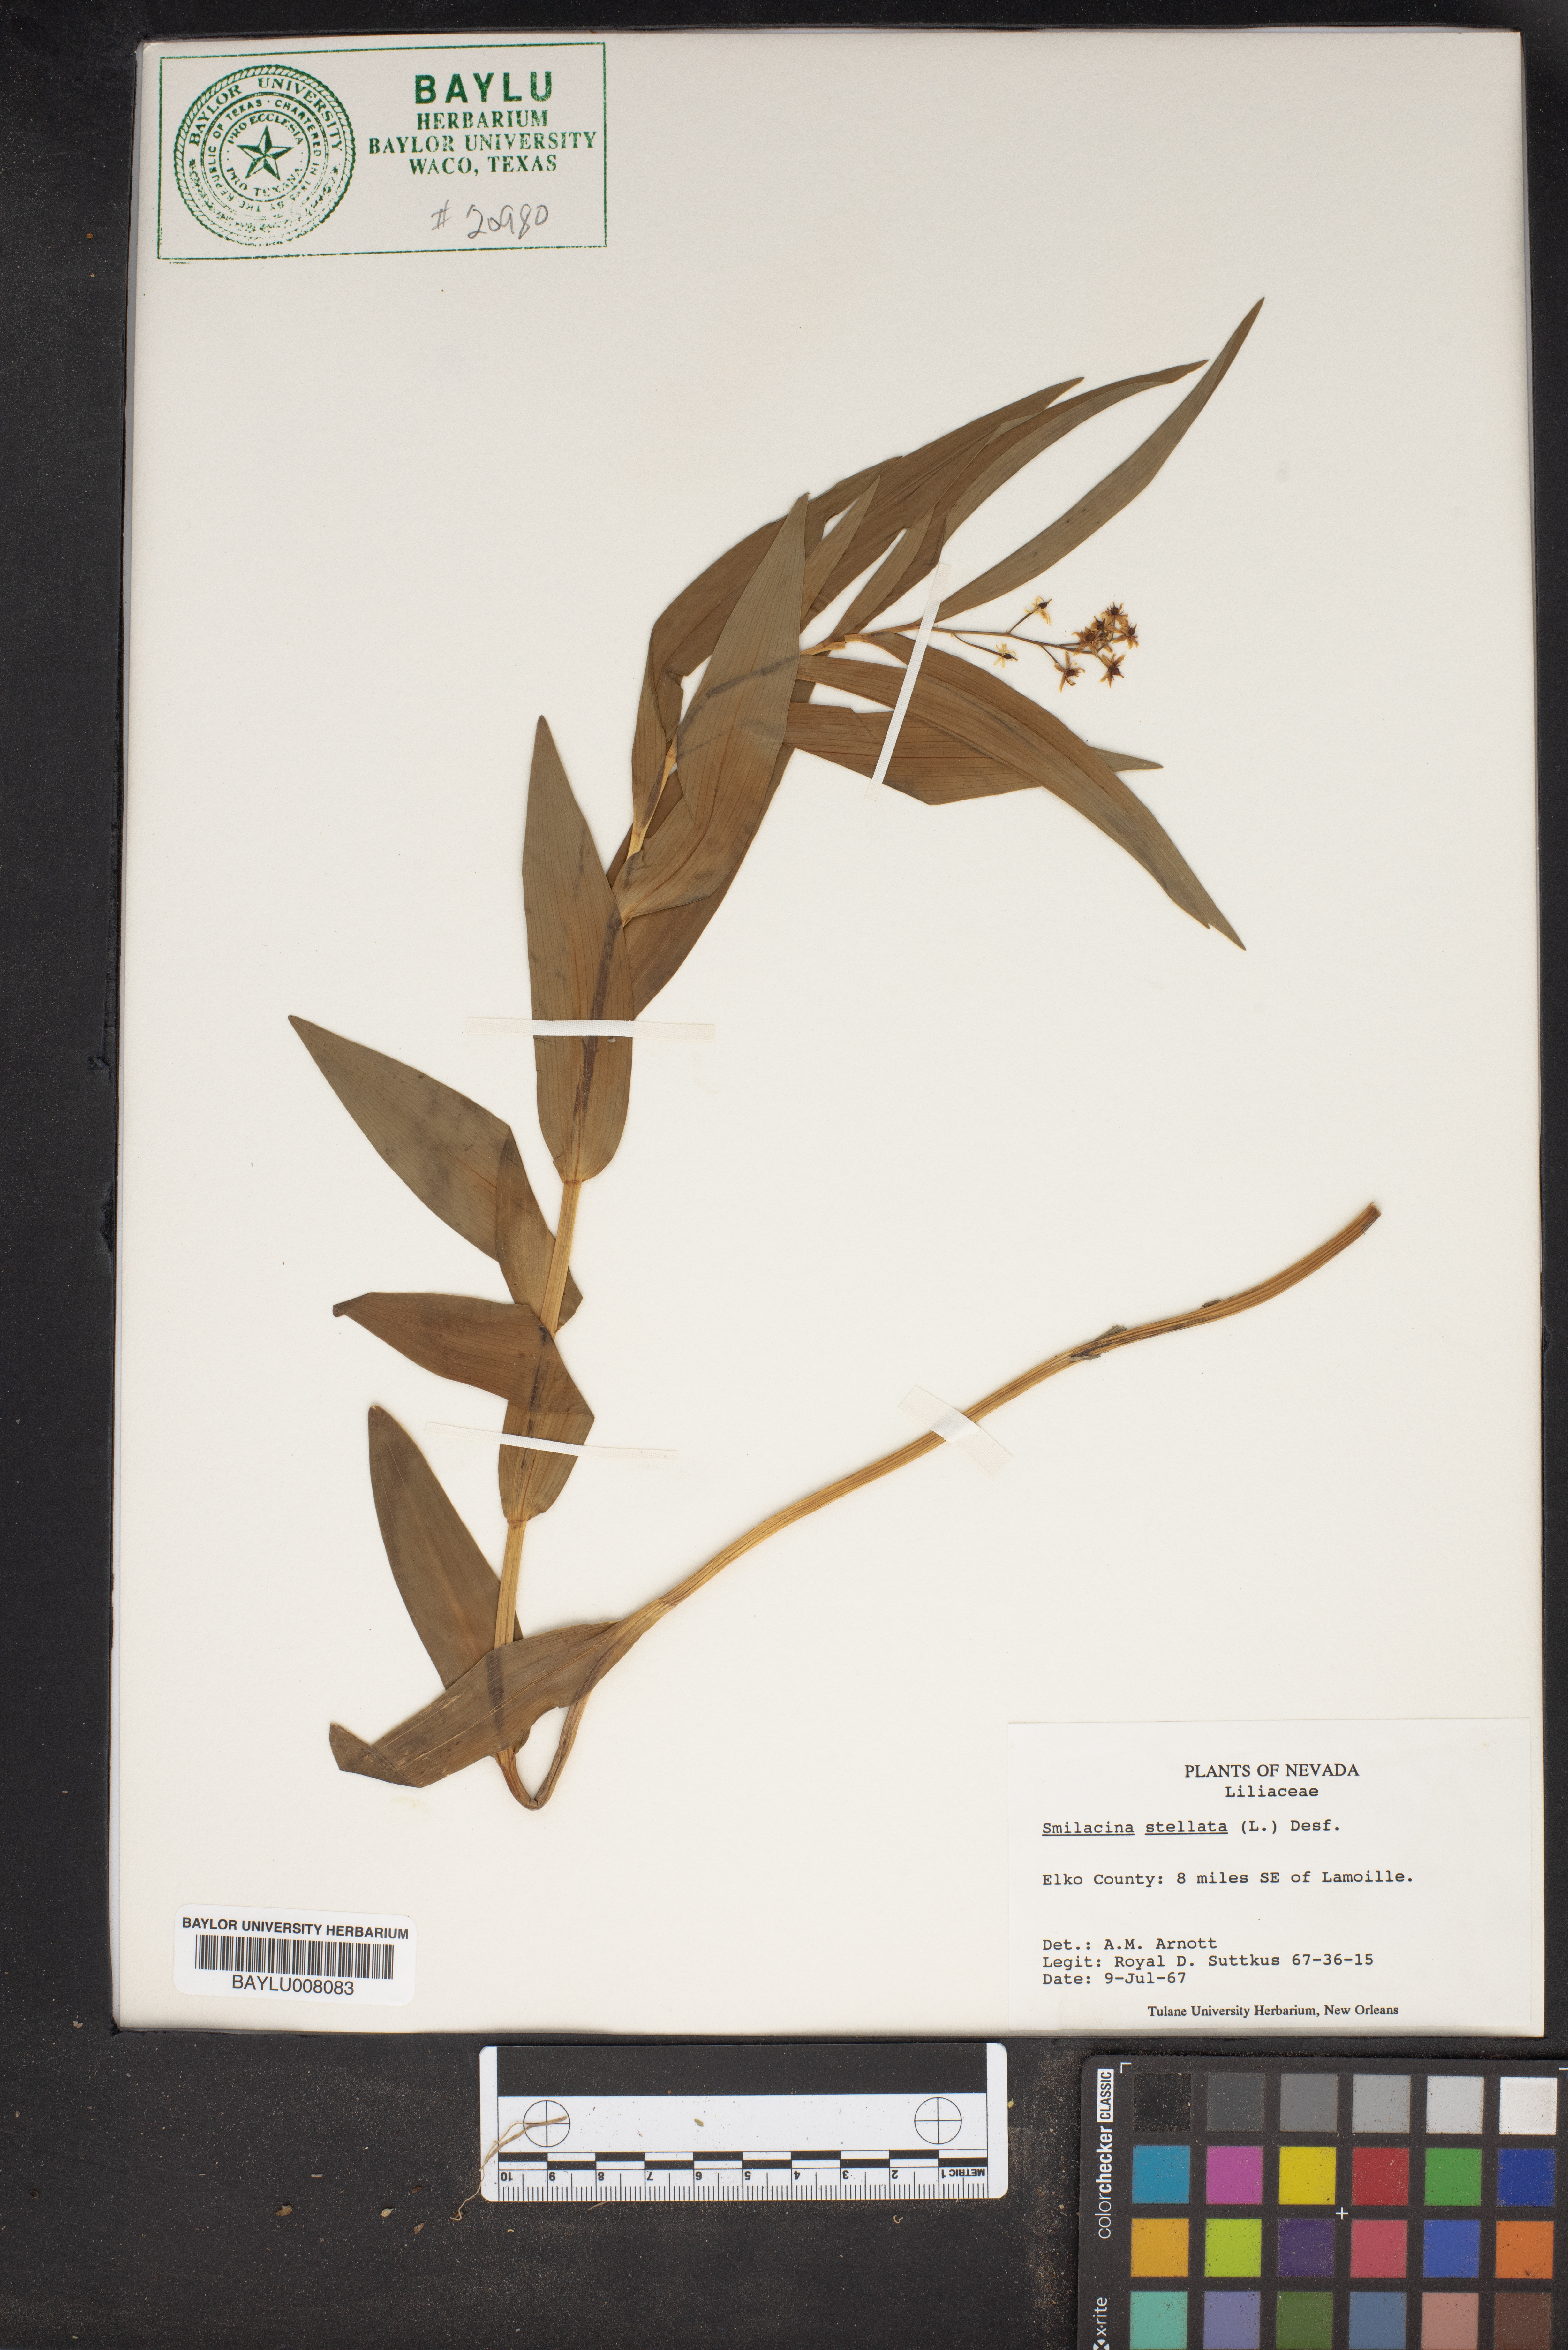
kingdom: Plantae
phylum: Tracheophyta
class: Liliopsida
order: Asparagales
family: Asparagaceae
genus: Maianthemum
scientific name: Maianthemum stellatum
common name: Little false solomon's seal
